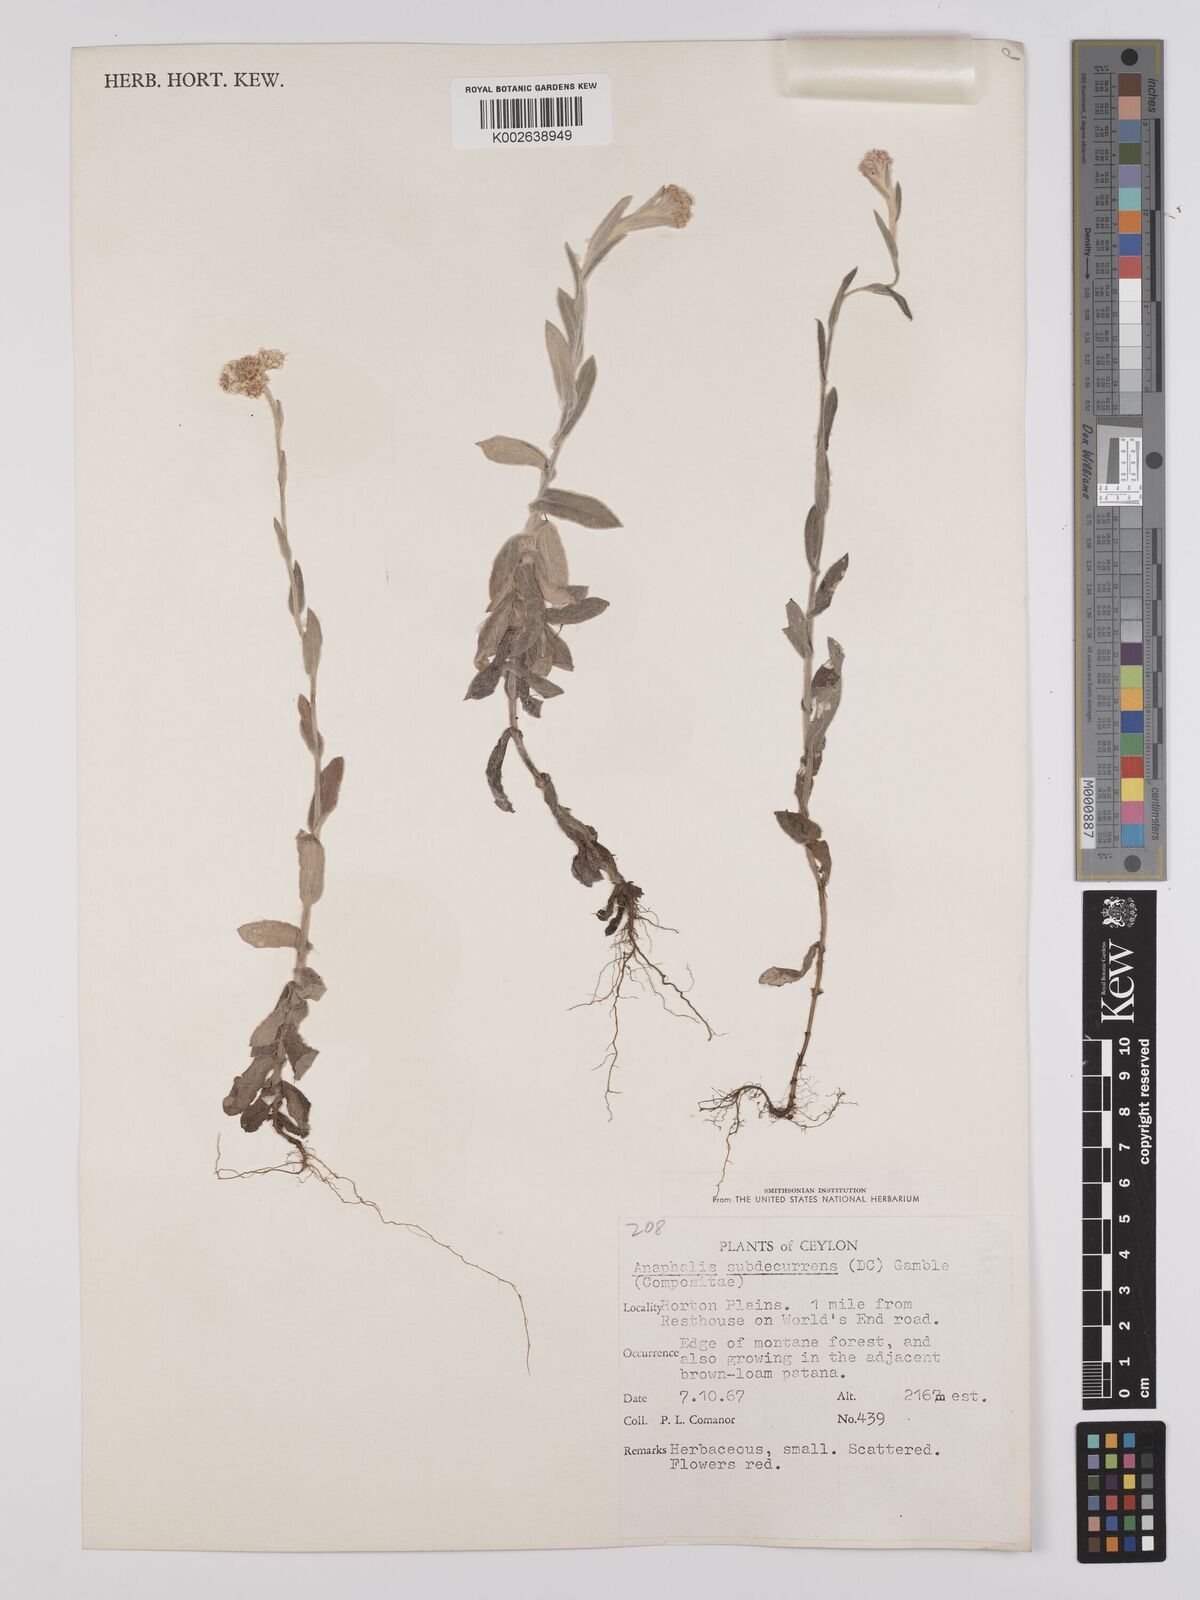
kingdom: Plantae
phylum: Tracheophyta
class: Magnoliopsida
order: Asterales
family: Asteraceae
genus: Anaphalis
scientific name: Anaphalis subdecurrens
